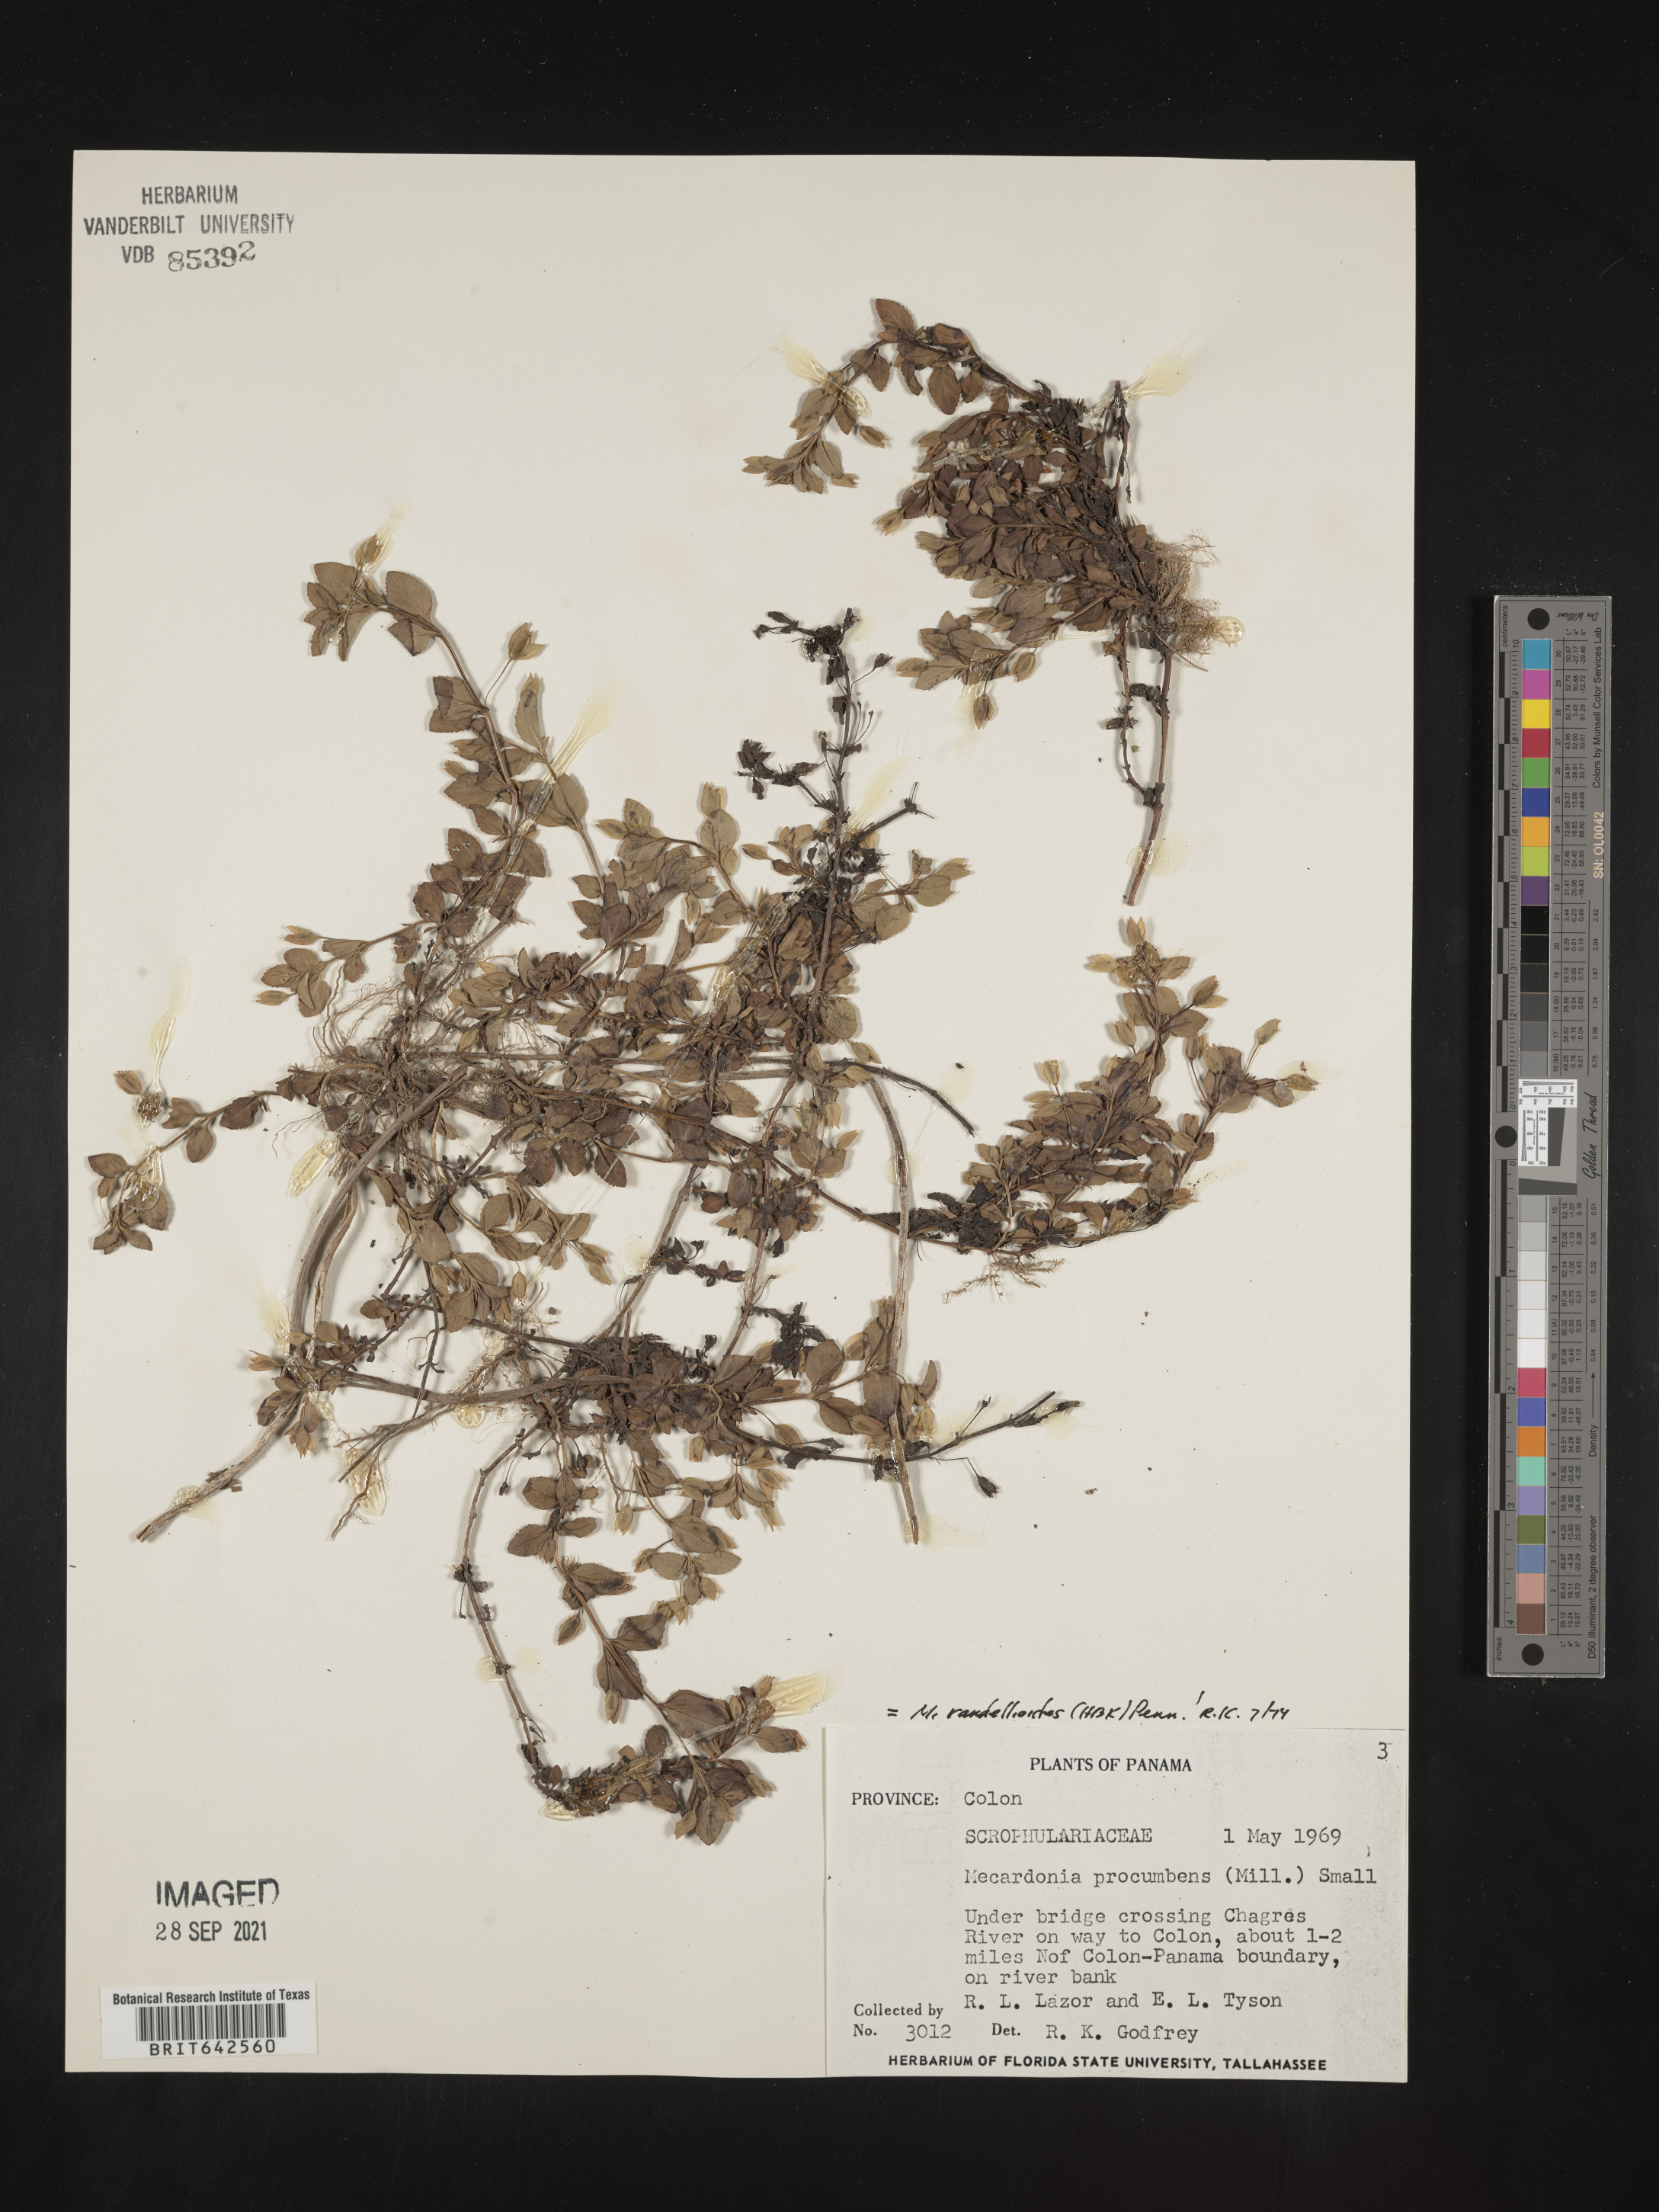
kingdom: Plantae
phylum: Tracheophyta
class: Magnoliopsida
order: Lamiales
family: Plantaginaceae
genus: Mecardonia
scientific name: Mecardonia
